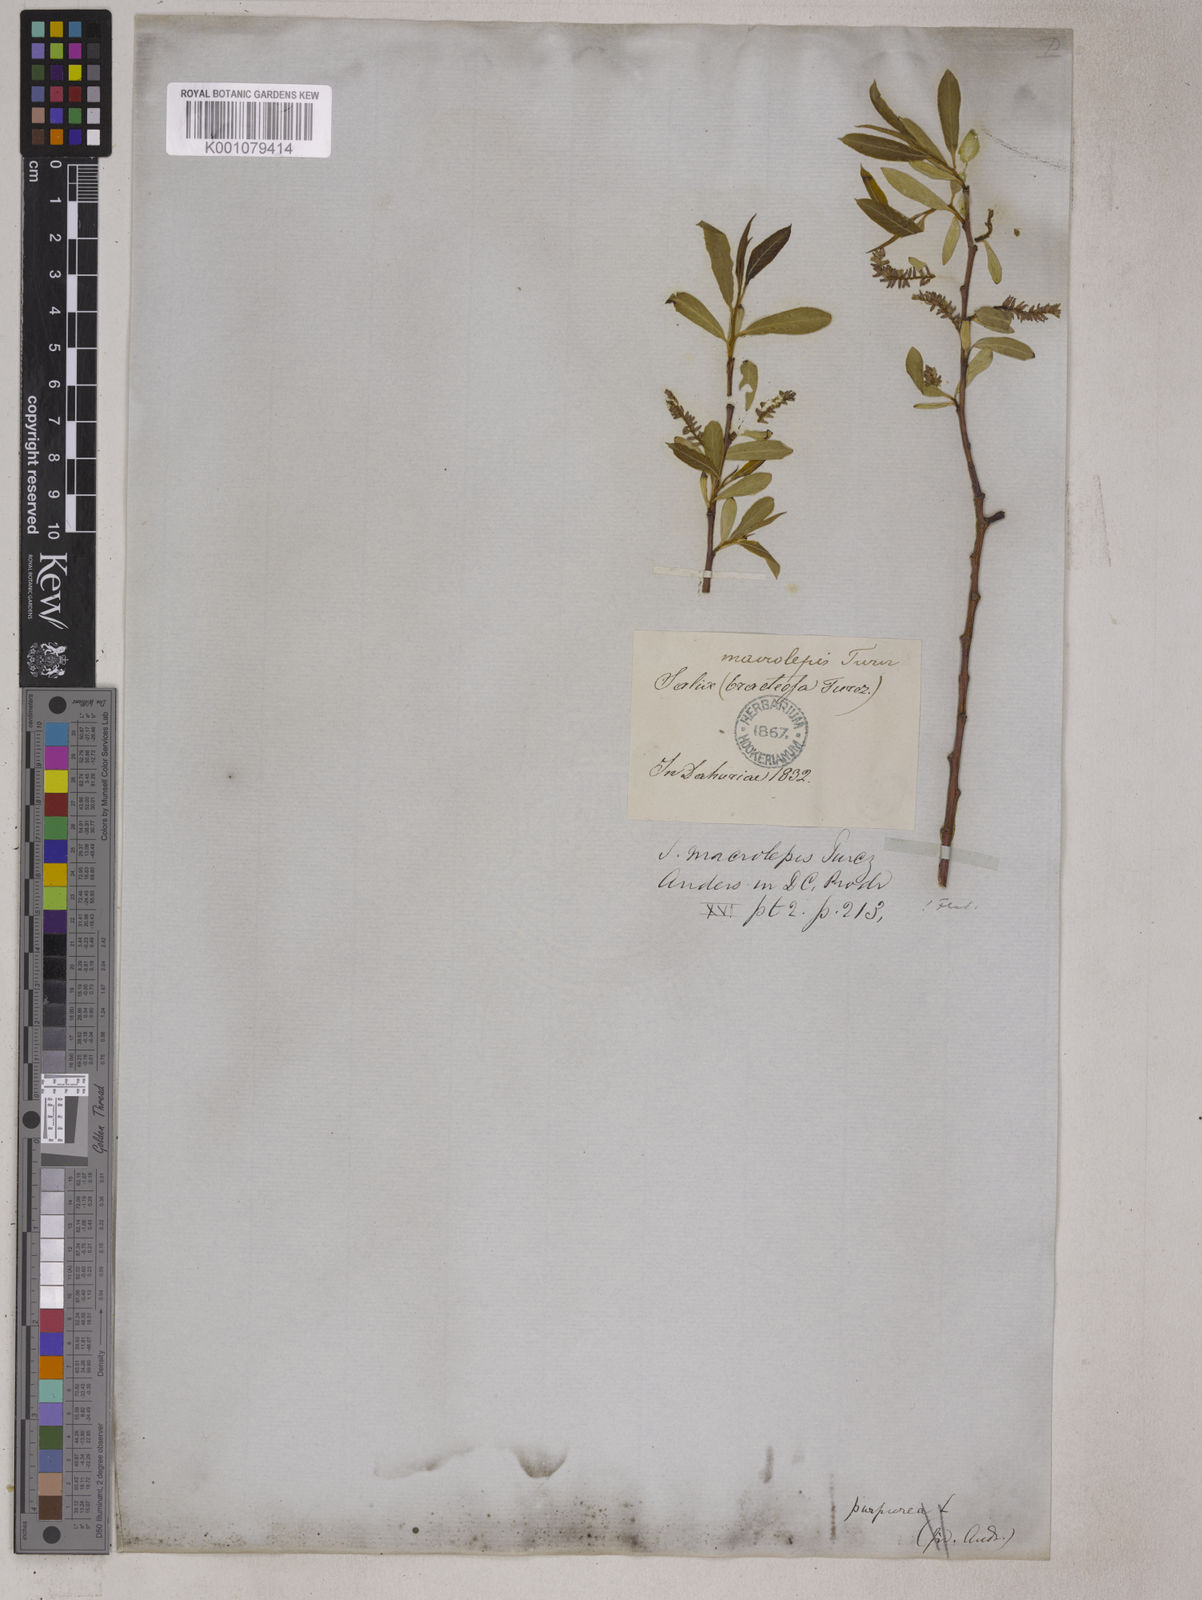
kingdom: Plantae
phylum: Tracheophyta
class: Magnoliopsida
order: Malpighiales
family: Salicaceae
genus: Chosenia
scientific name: Chosenia arbutifolia
